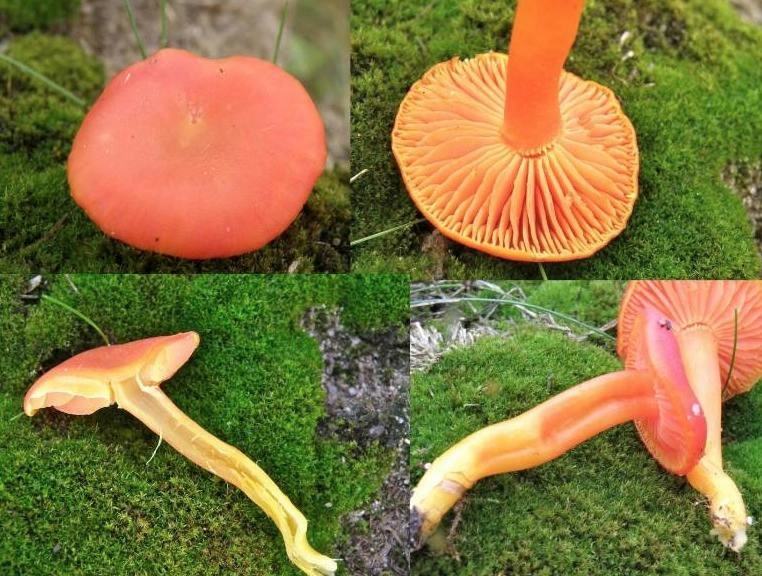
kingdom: Fungi
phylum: Basidiomycota
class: Agaricomycetes
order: Agaricales
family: Hygrophoraceae
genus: Hygrocybe
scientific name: Hygrocybe miniata
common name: mønje-vokshat
